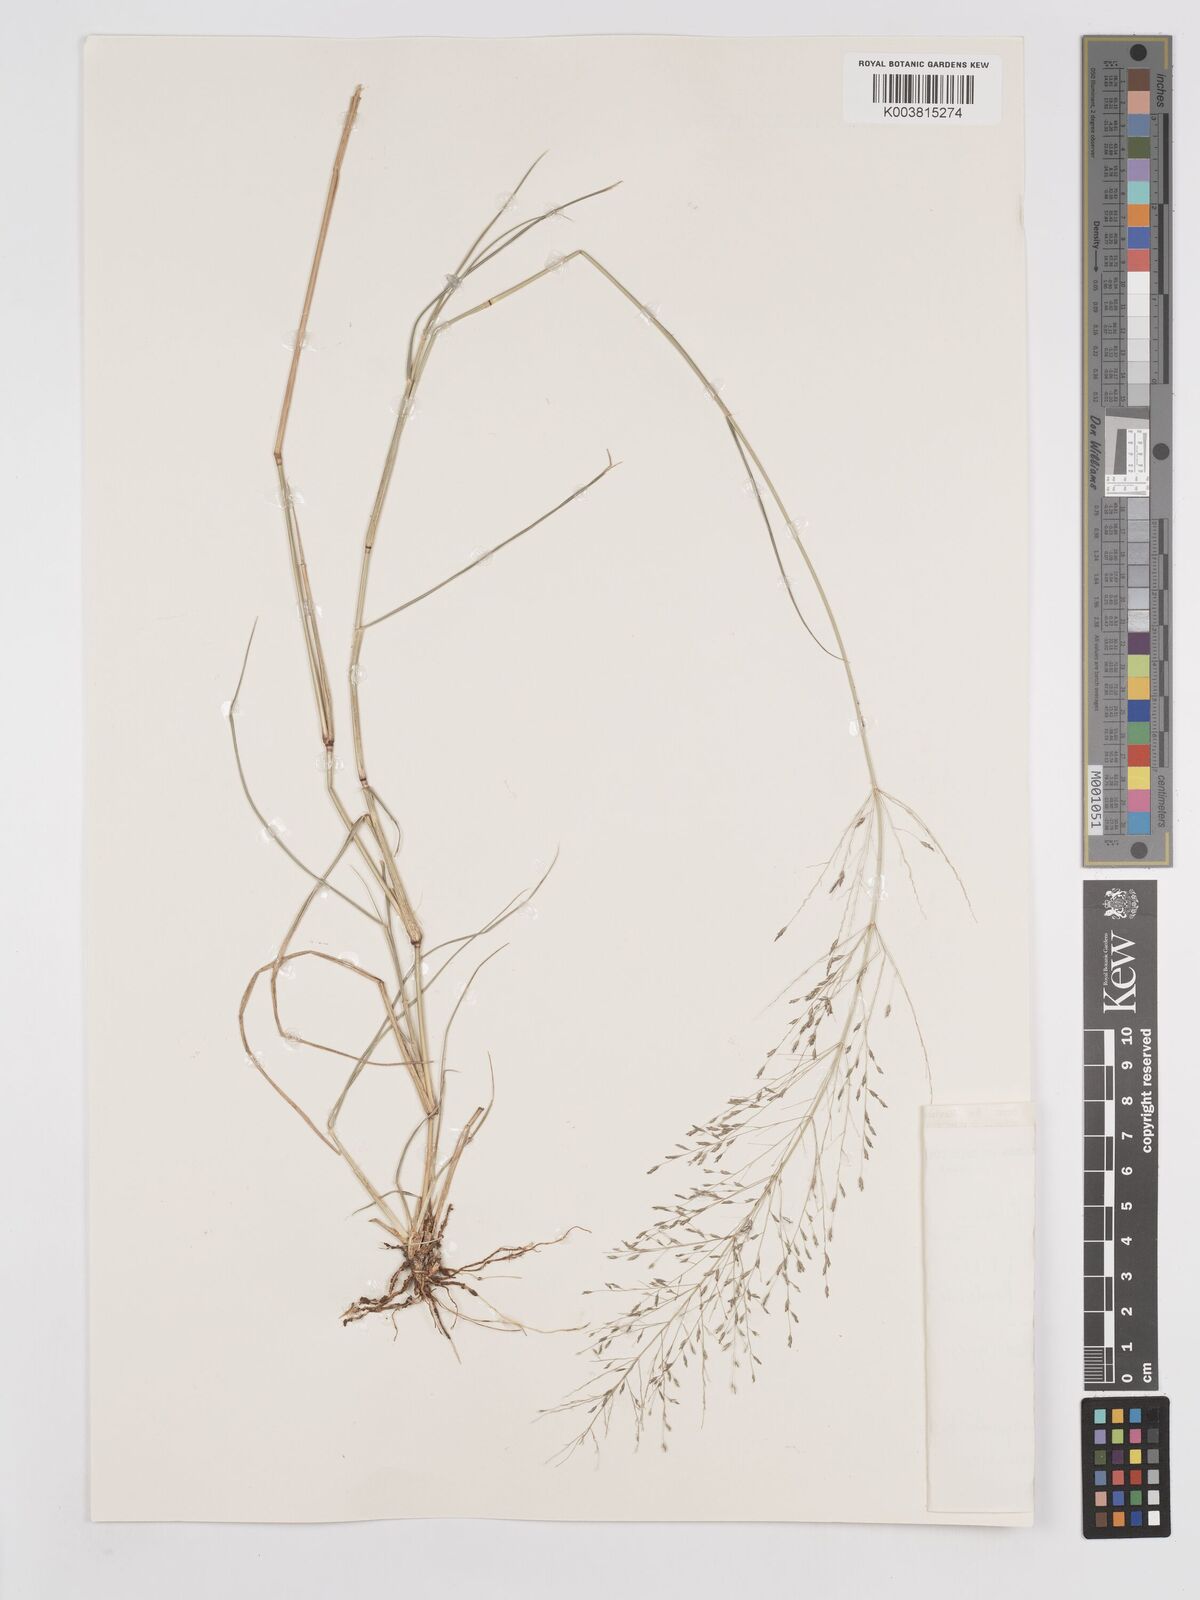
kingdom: Plantae
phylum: Tracheophyta
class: Liliopsida
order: Poales
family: Poaceae
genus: Eragrostis
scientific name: Eragrostis cylindriflora
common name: Cylinderflower lovegrass
